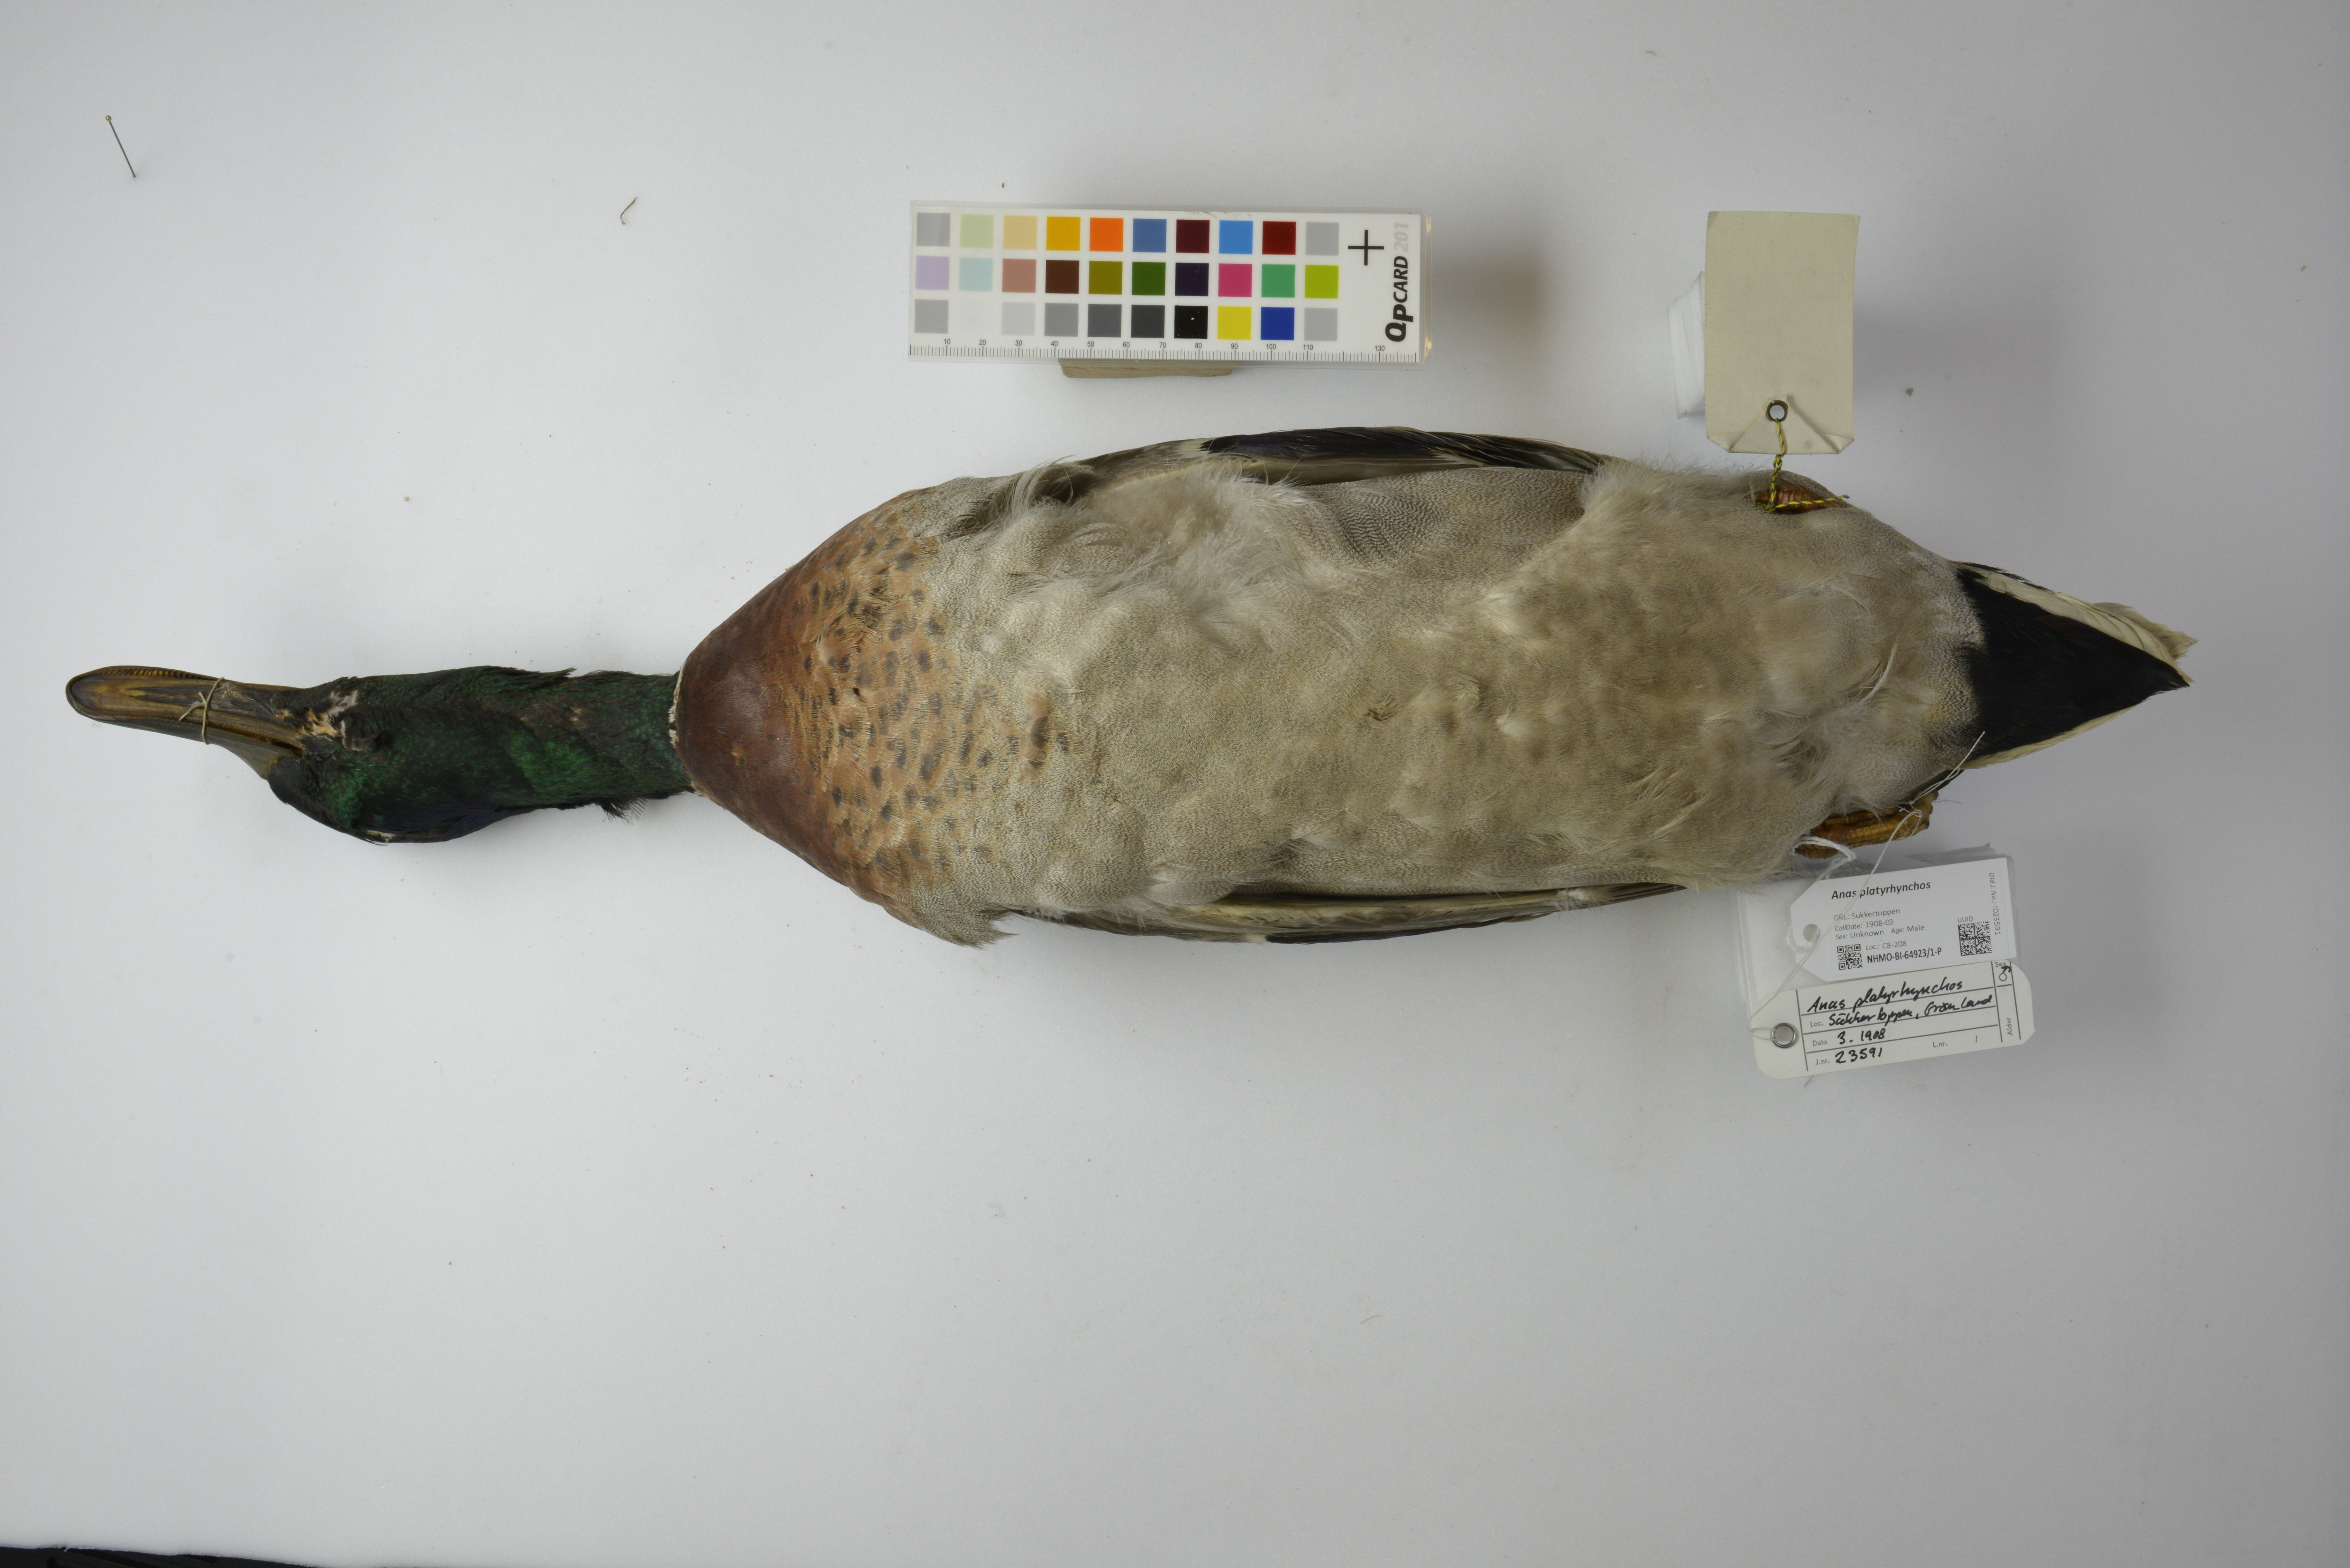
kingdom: Animalia
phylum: Chordata
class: Aves
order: Anseriformes
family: Anatidae
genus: Anas
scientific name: Anas platyrhynchos
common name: Mallard
